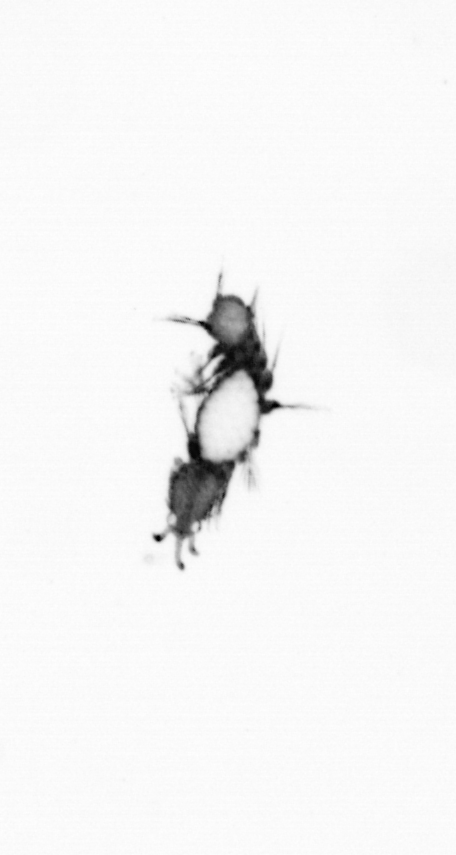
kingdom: Animalia
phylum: Annelida
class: Polychaeta
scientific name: Polychaeta
